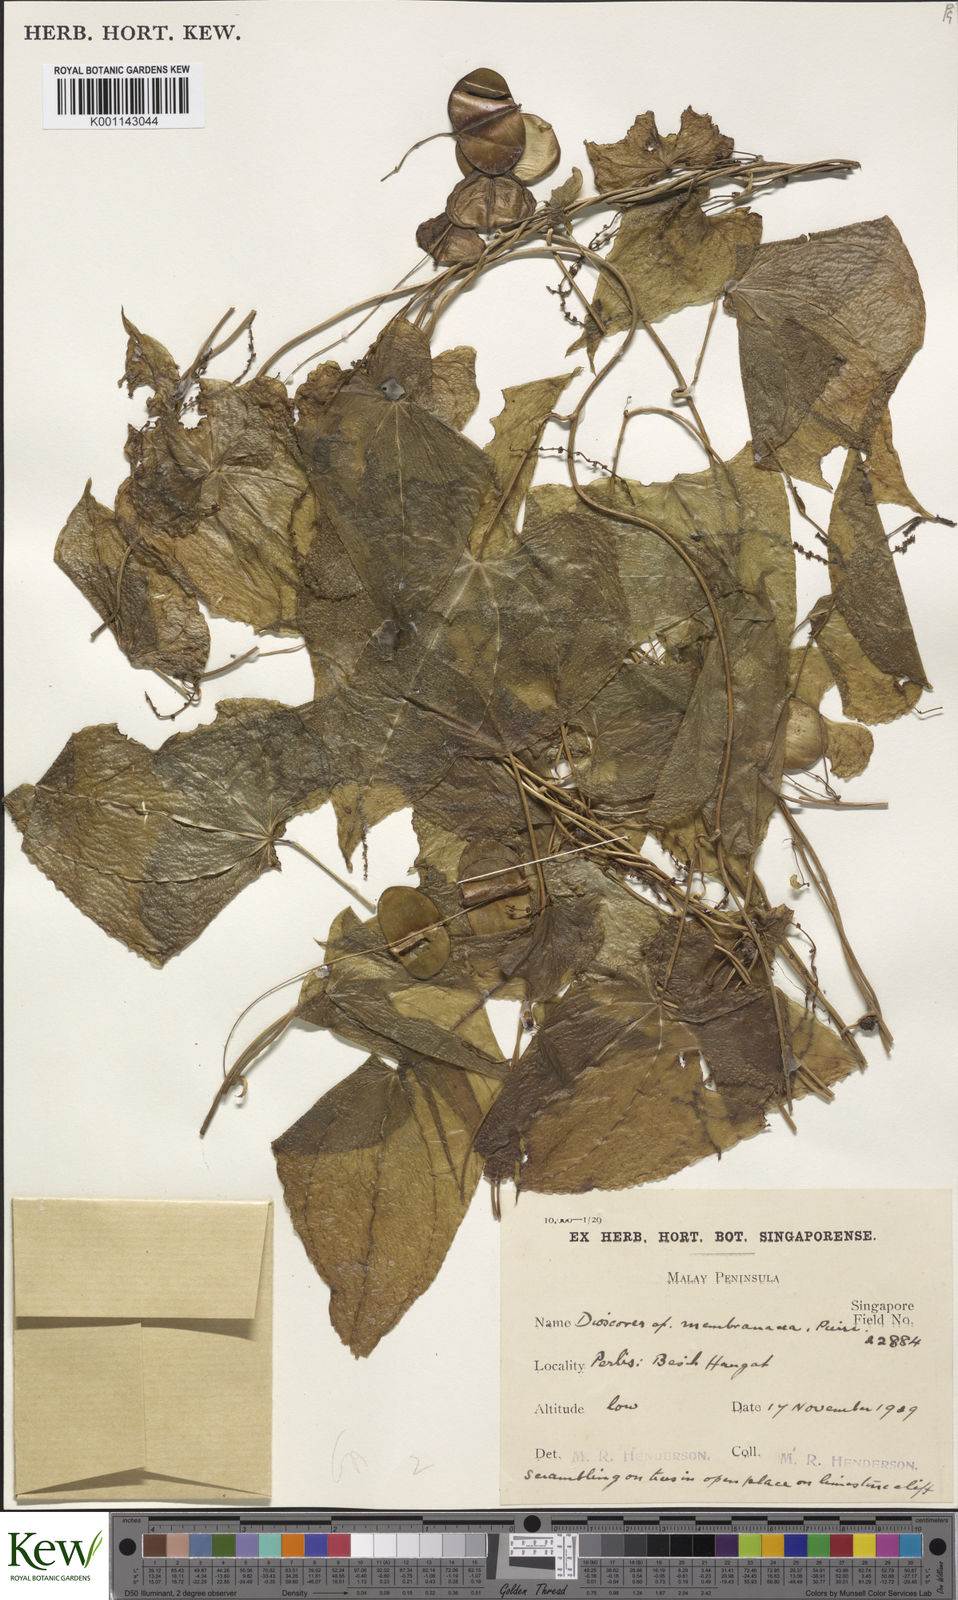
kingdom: Plantae
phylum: Tracheophyta
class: Liliopsida
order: Dioscoreales
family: Dioscoreaceae
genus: Dioscorea
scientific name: Dioscorea membranacea
